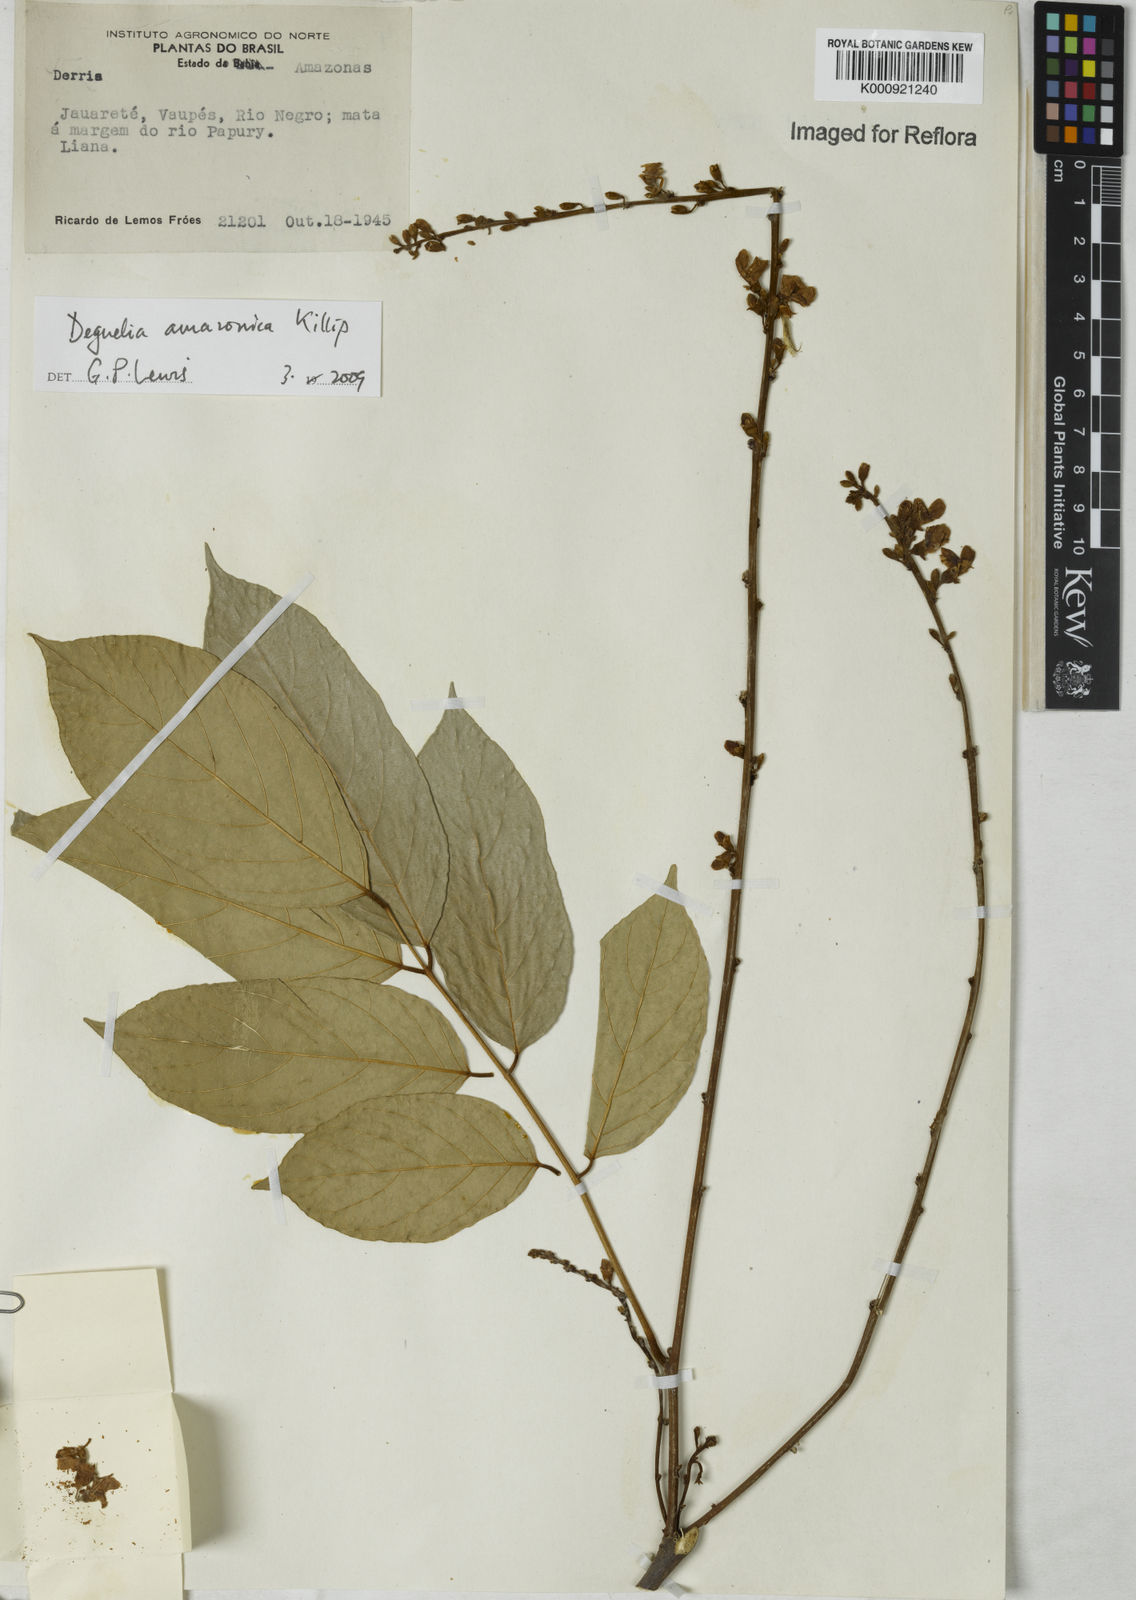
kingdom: Plantae
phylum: Tracheophyta
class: Magnoliopsida
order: Fabales
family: Fabaceae
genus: Deguelia
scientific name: Deguelia amazonica
